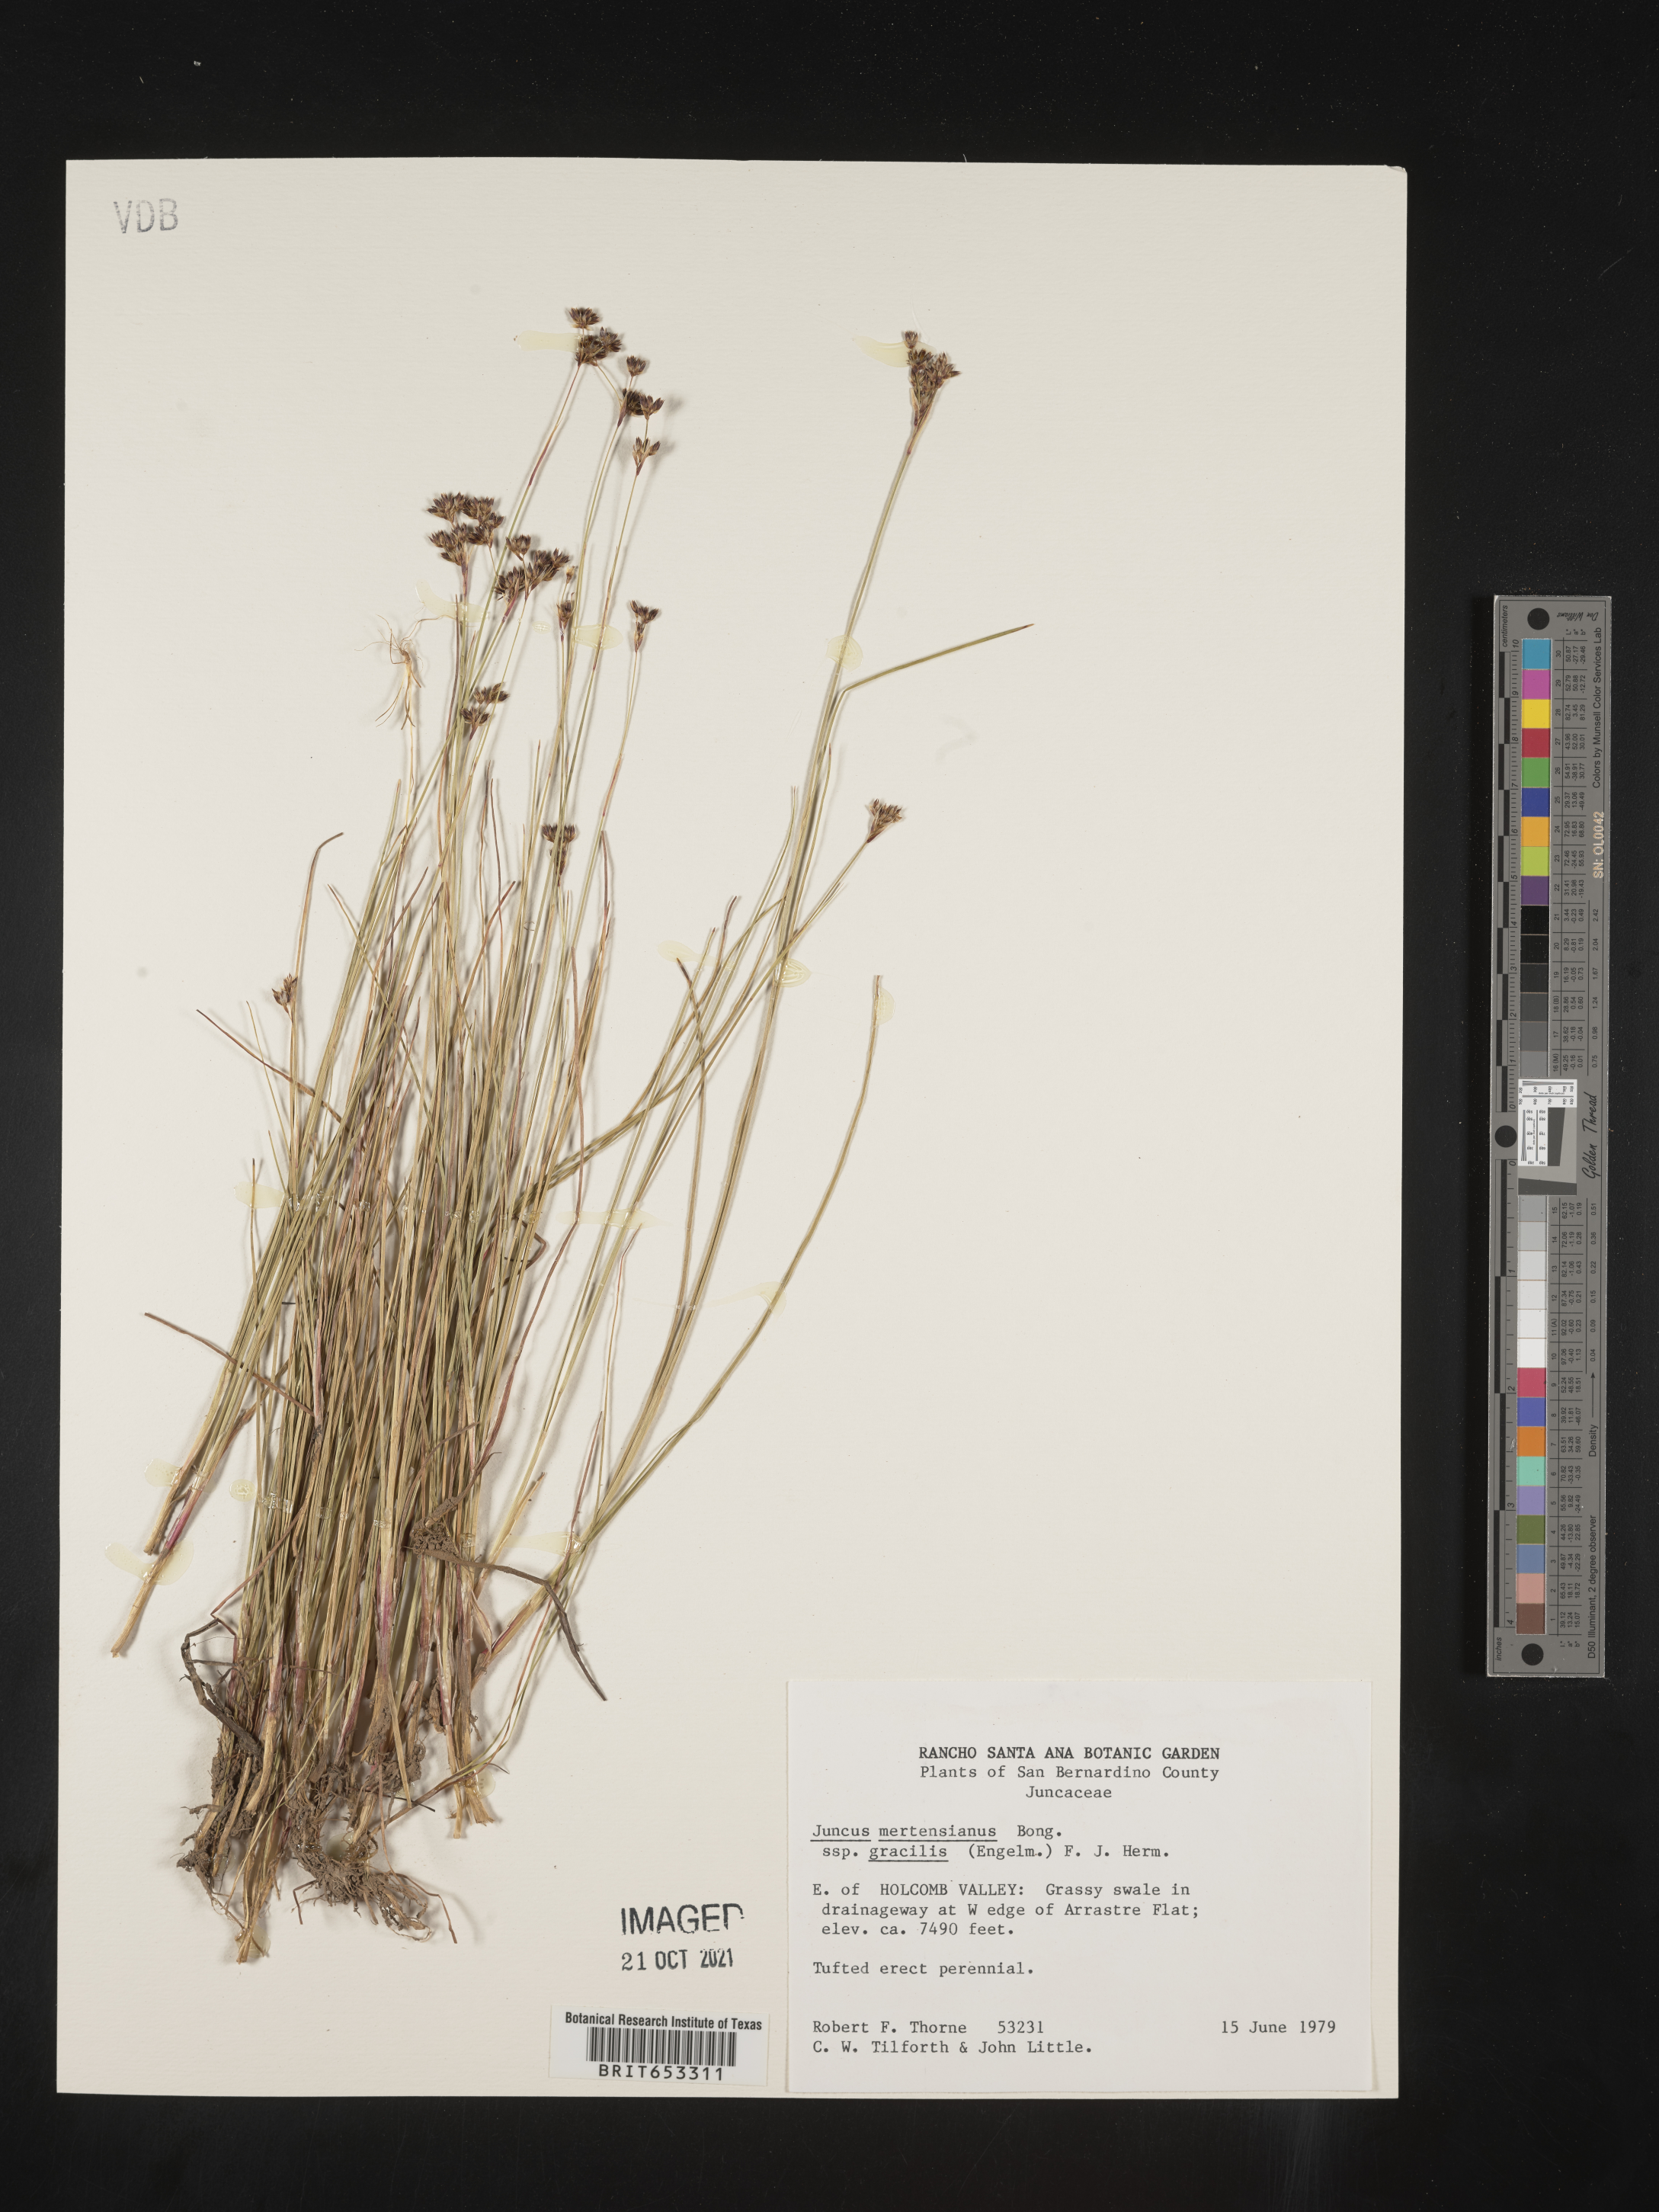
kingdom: Plantae
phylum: Tracheophyta
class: Liliopsida
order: Poales
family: Juncaceae
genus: Juncus
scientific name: Juncus mertensianus
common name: Merten's rush
